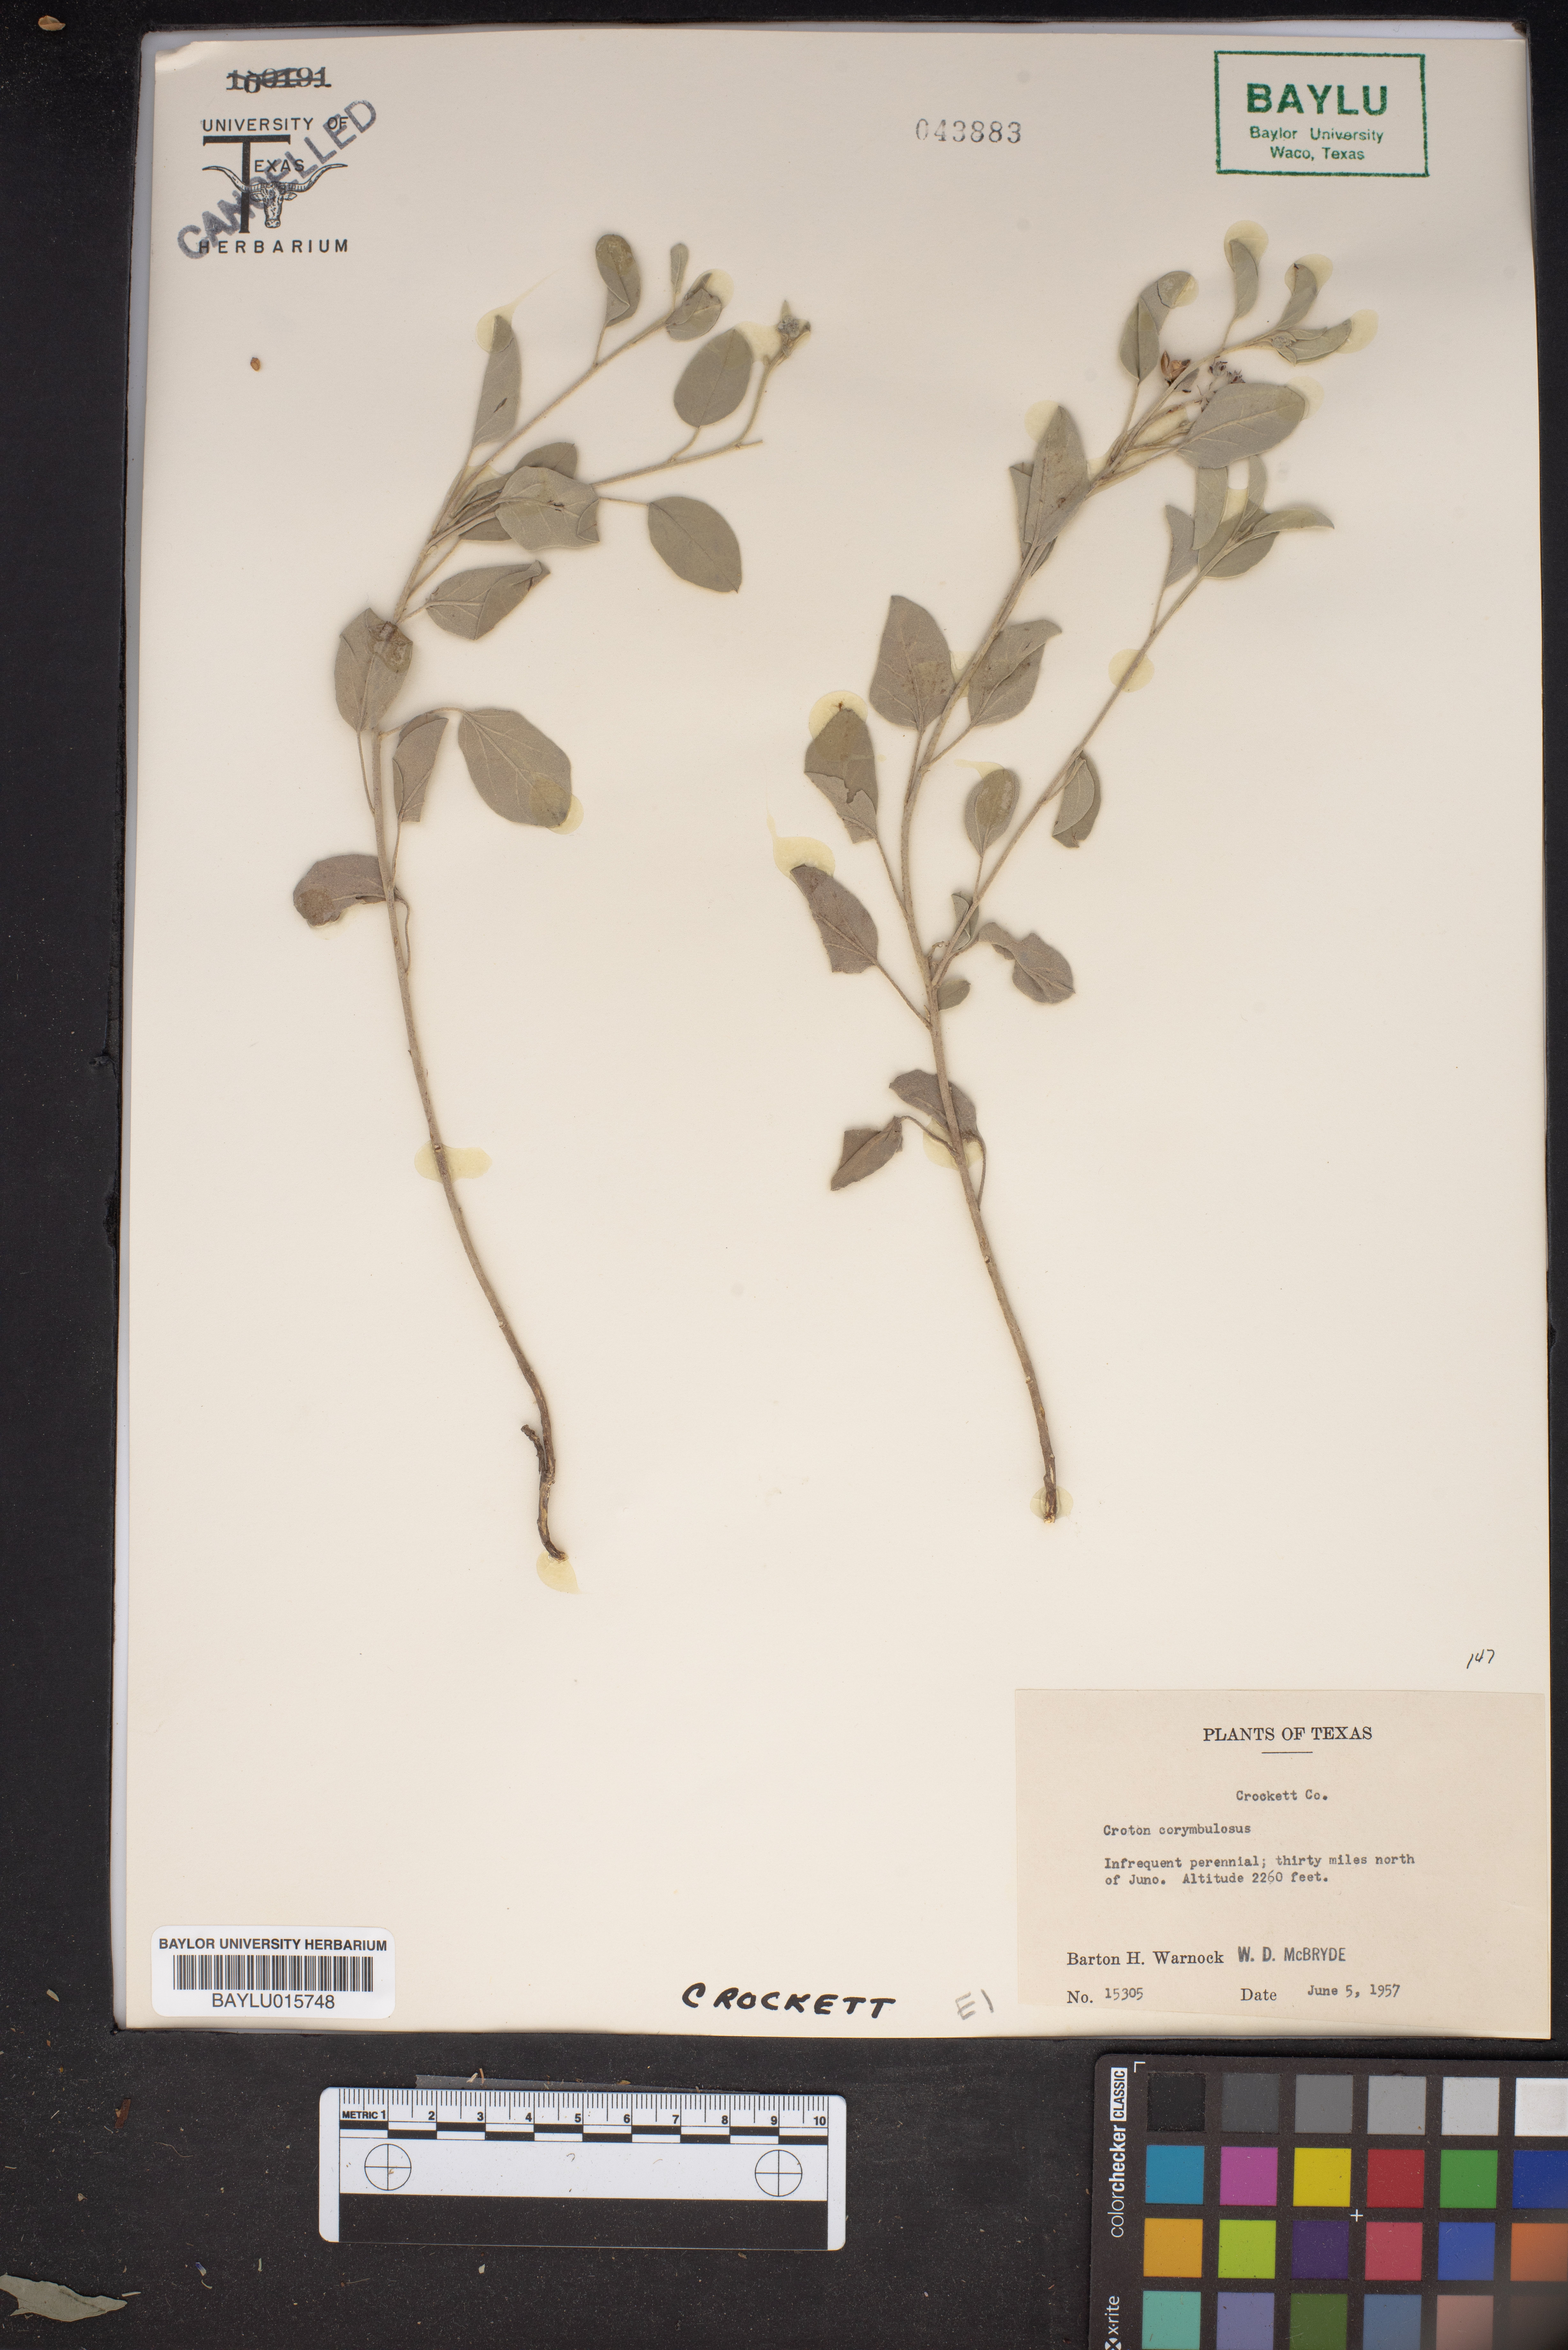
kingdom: Plantae
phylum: Tracheophyta
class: Magnoliopsida
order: Malpighiales
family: Euphorbiaceae
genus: Croton
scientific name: Croton pottsii
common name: Leatherweed
